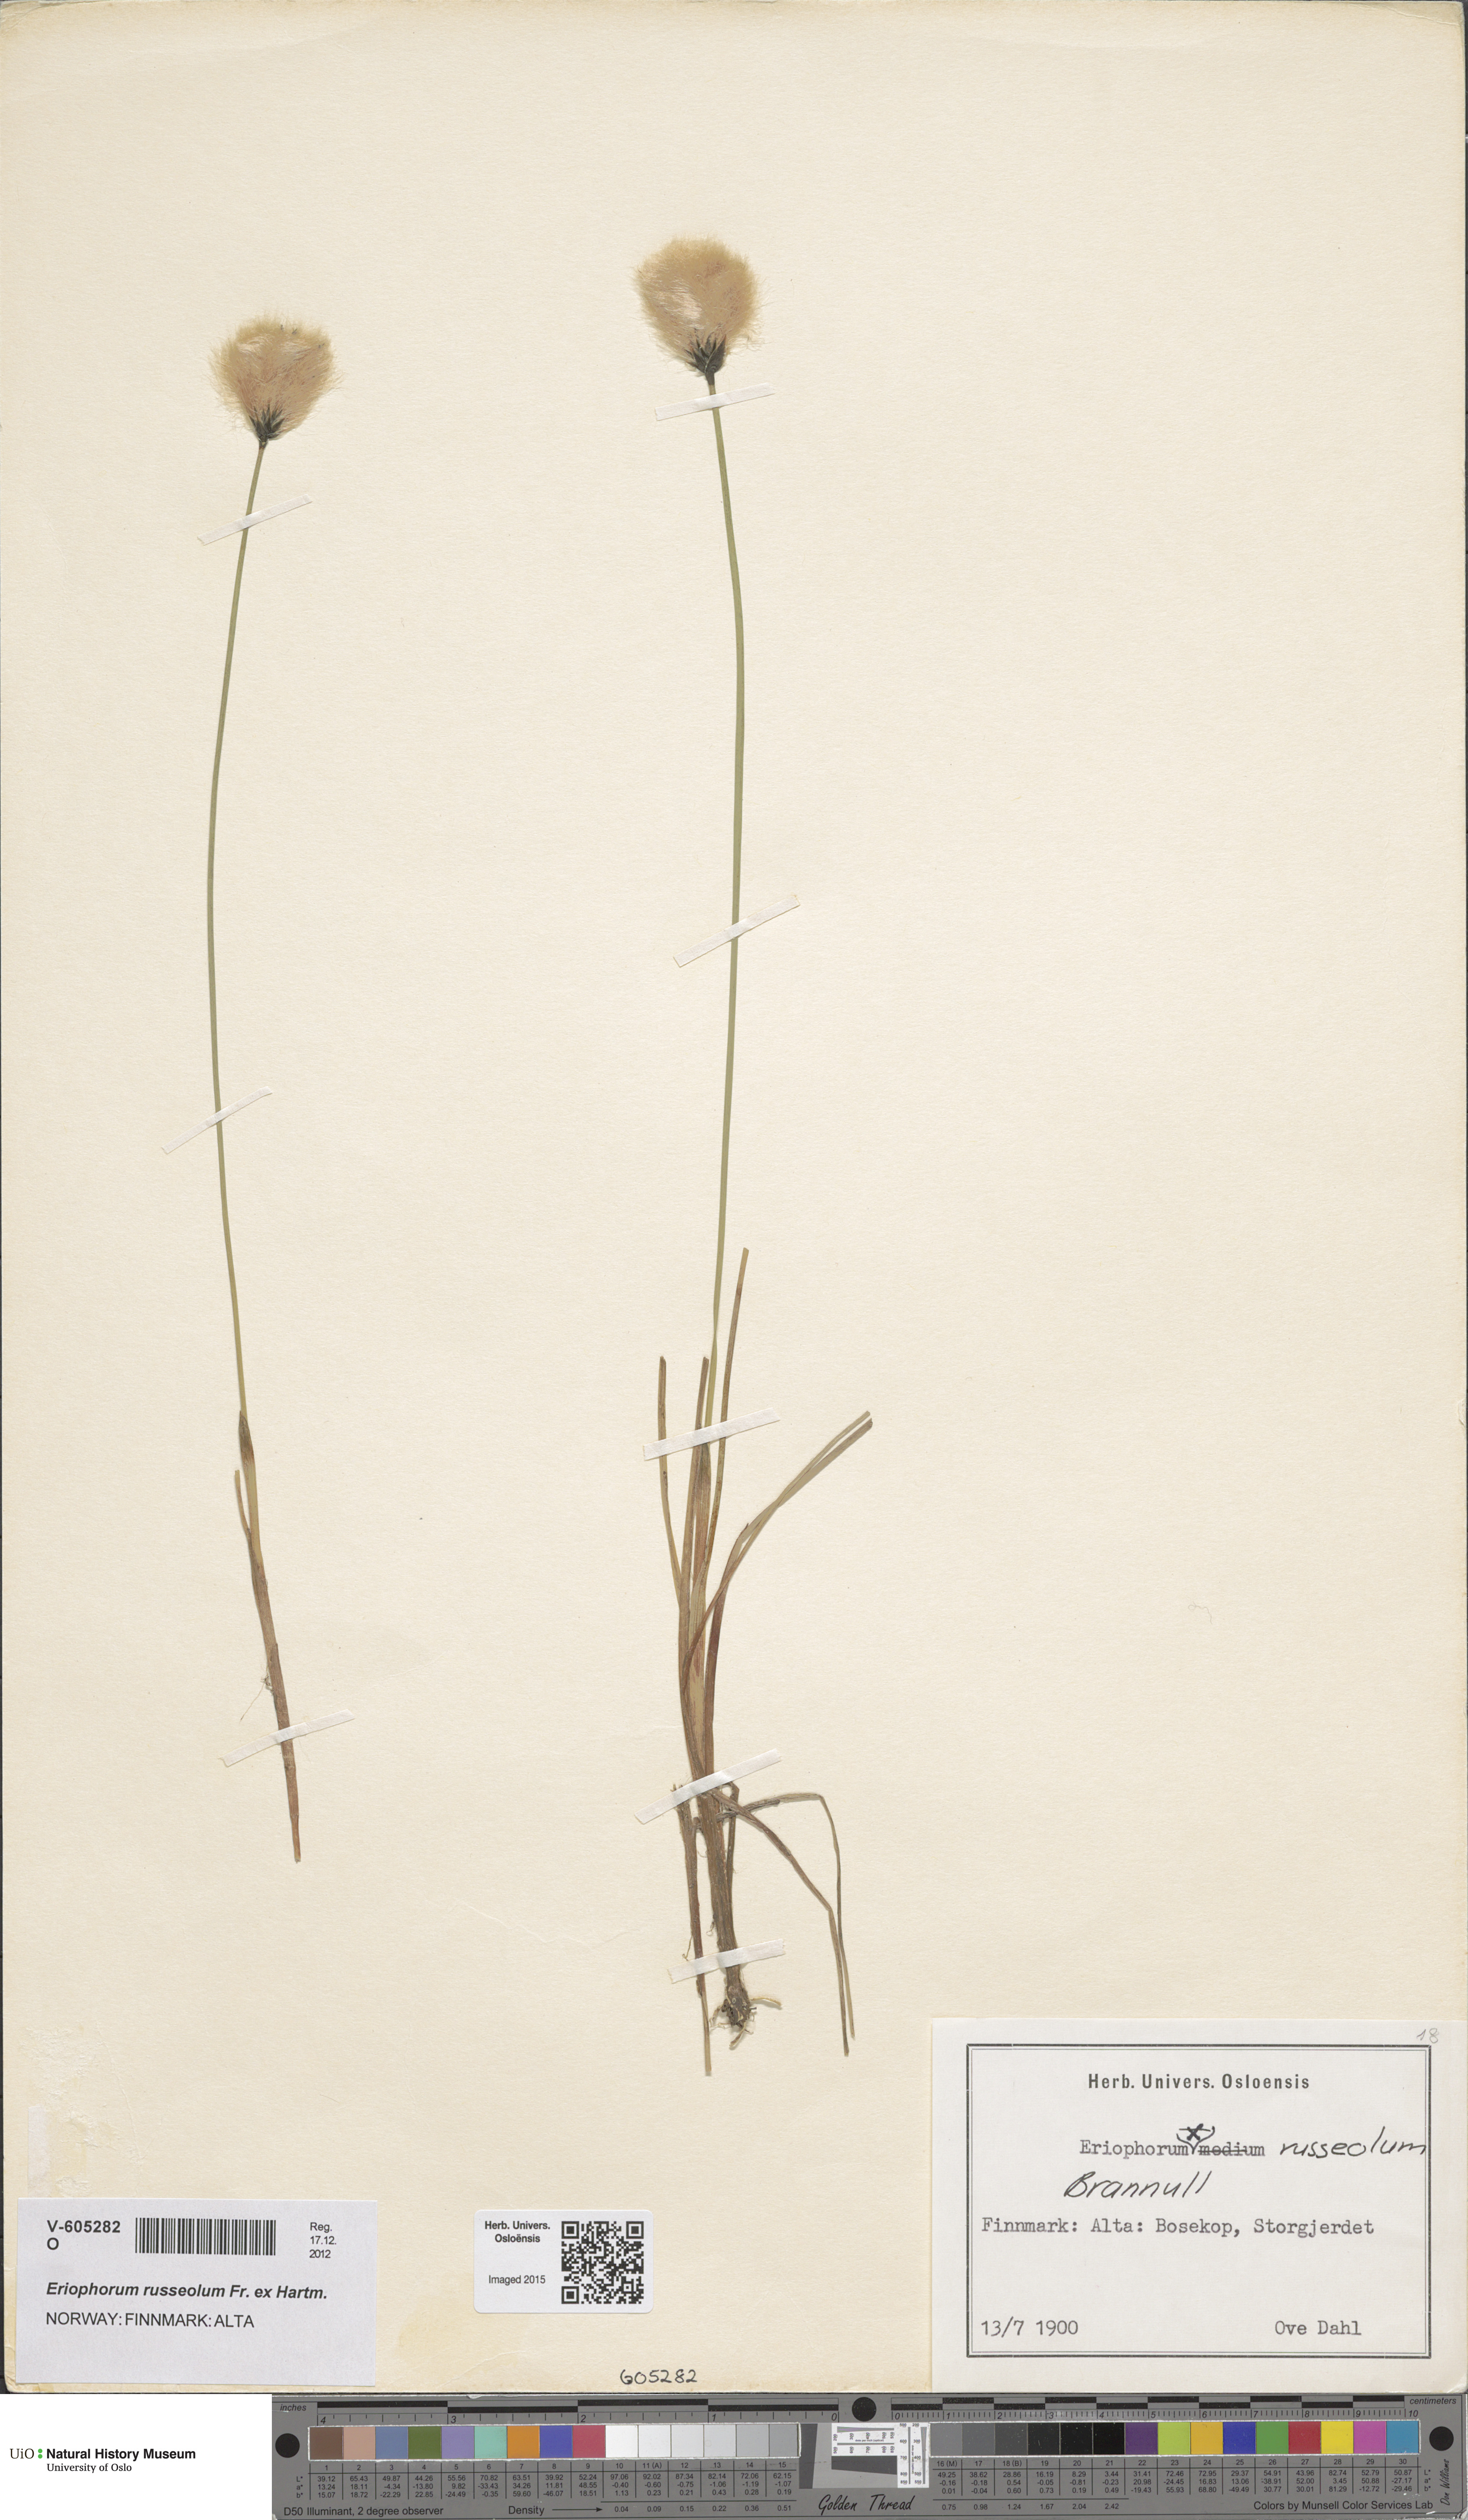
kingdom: Plantae
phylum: Tracheophyta
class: Liliopsida
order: Poales
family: Cyperaceae
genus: Eriophorum
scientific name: Eriophorum russeolum
